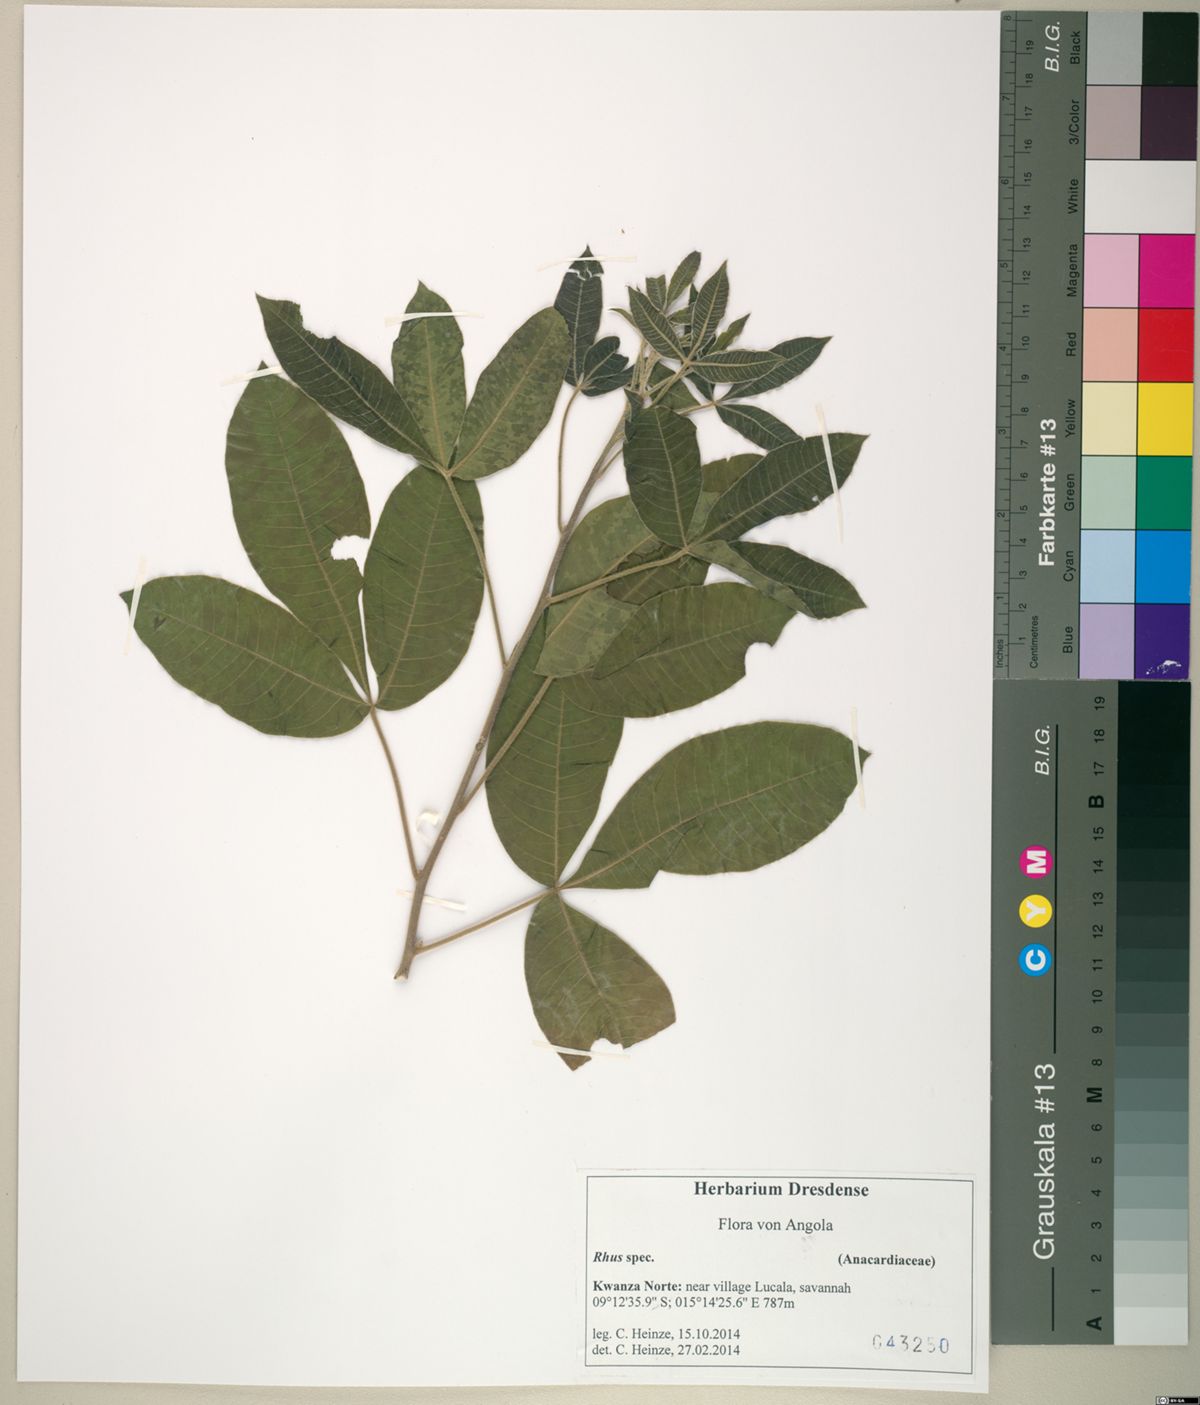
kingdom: Plantae
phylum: Tracheophyta
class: Magnoliopsida
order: Sapindales
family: Anacardiaceae
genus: Rhus
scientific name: Rhus
